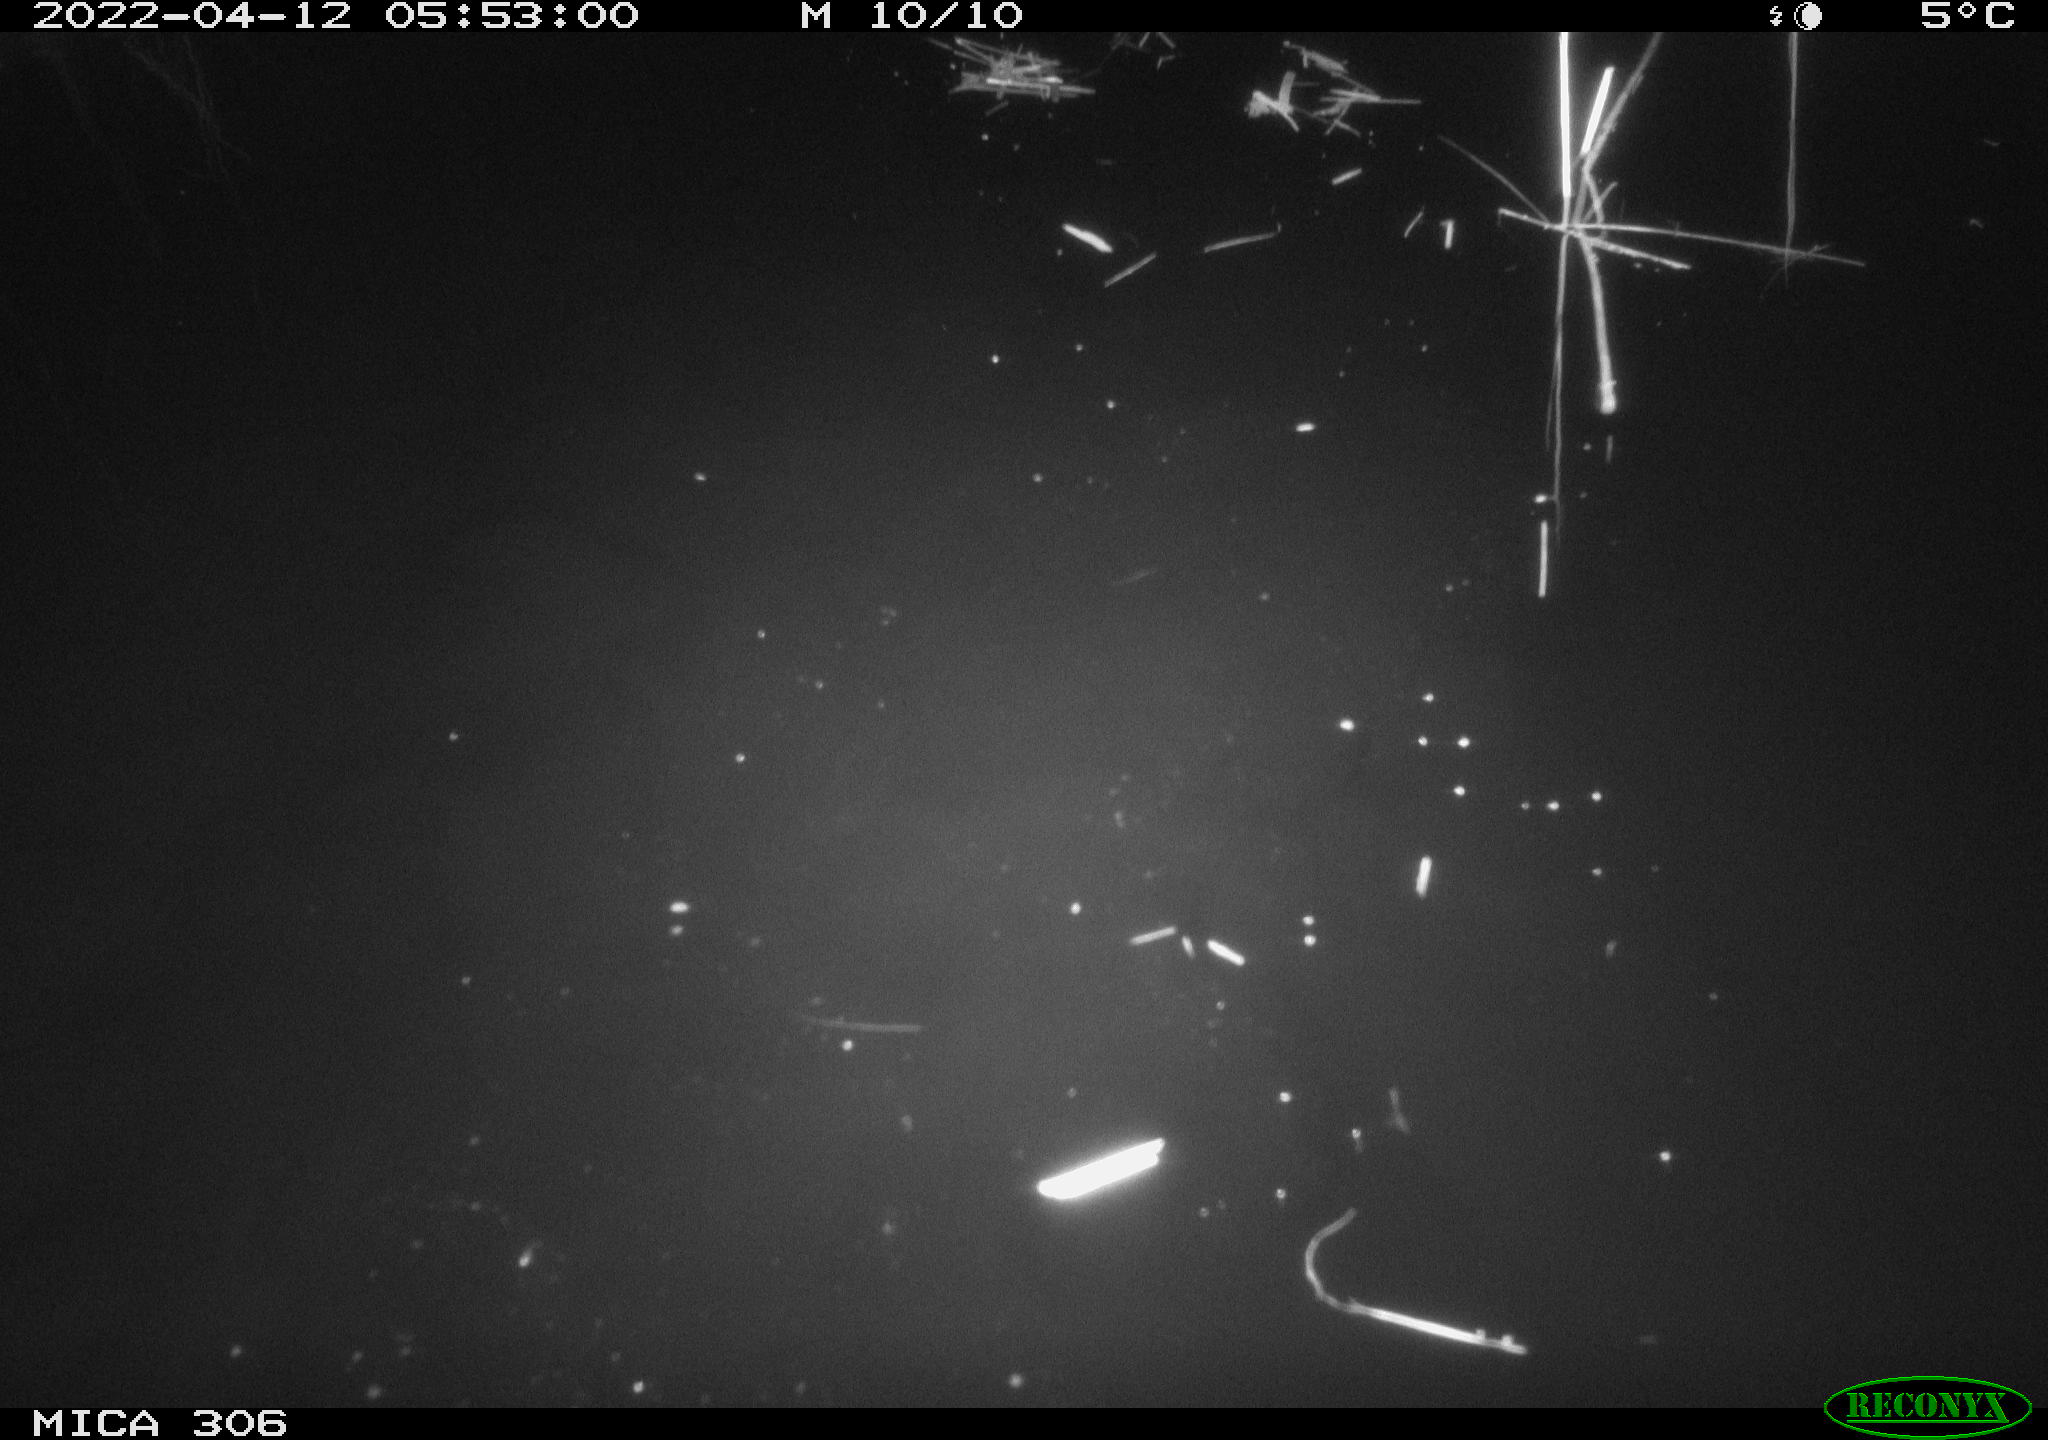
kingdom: Animalia
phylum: Chordata
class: Aves
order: Gruiformes
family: Rallidae
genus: Gallinula
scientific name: Gallinula chloropus
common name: Common moorhen
